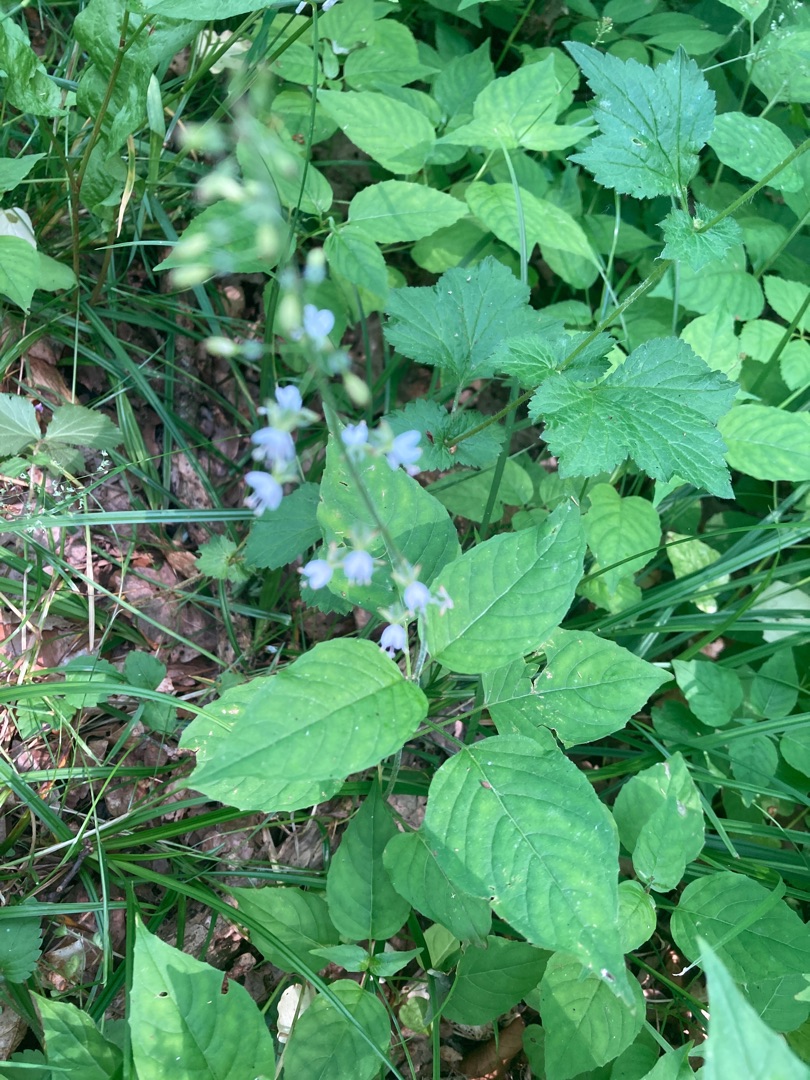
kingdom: Plantae
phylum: Tracheophyta
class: Magnoliopsida
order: Myrtales
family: Onagraceae
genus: Circaea
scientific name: Circaea lutetiana
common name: Dunet steffensurt
